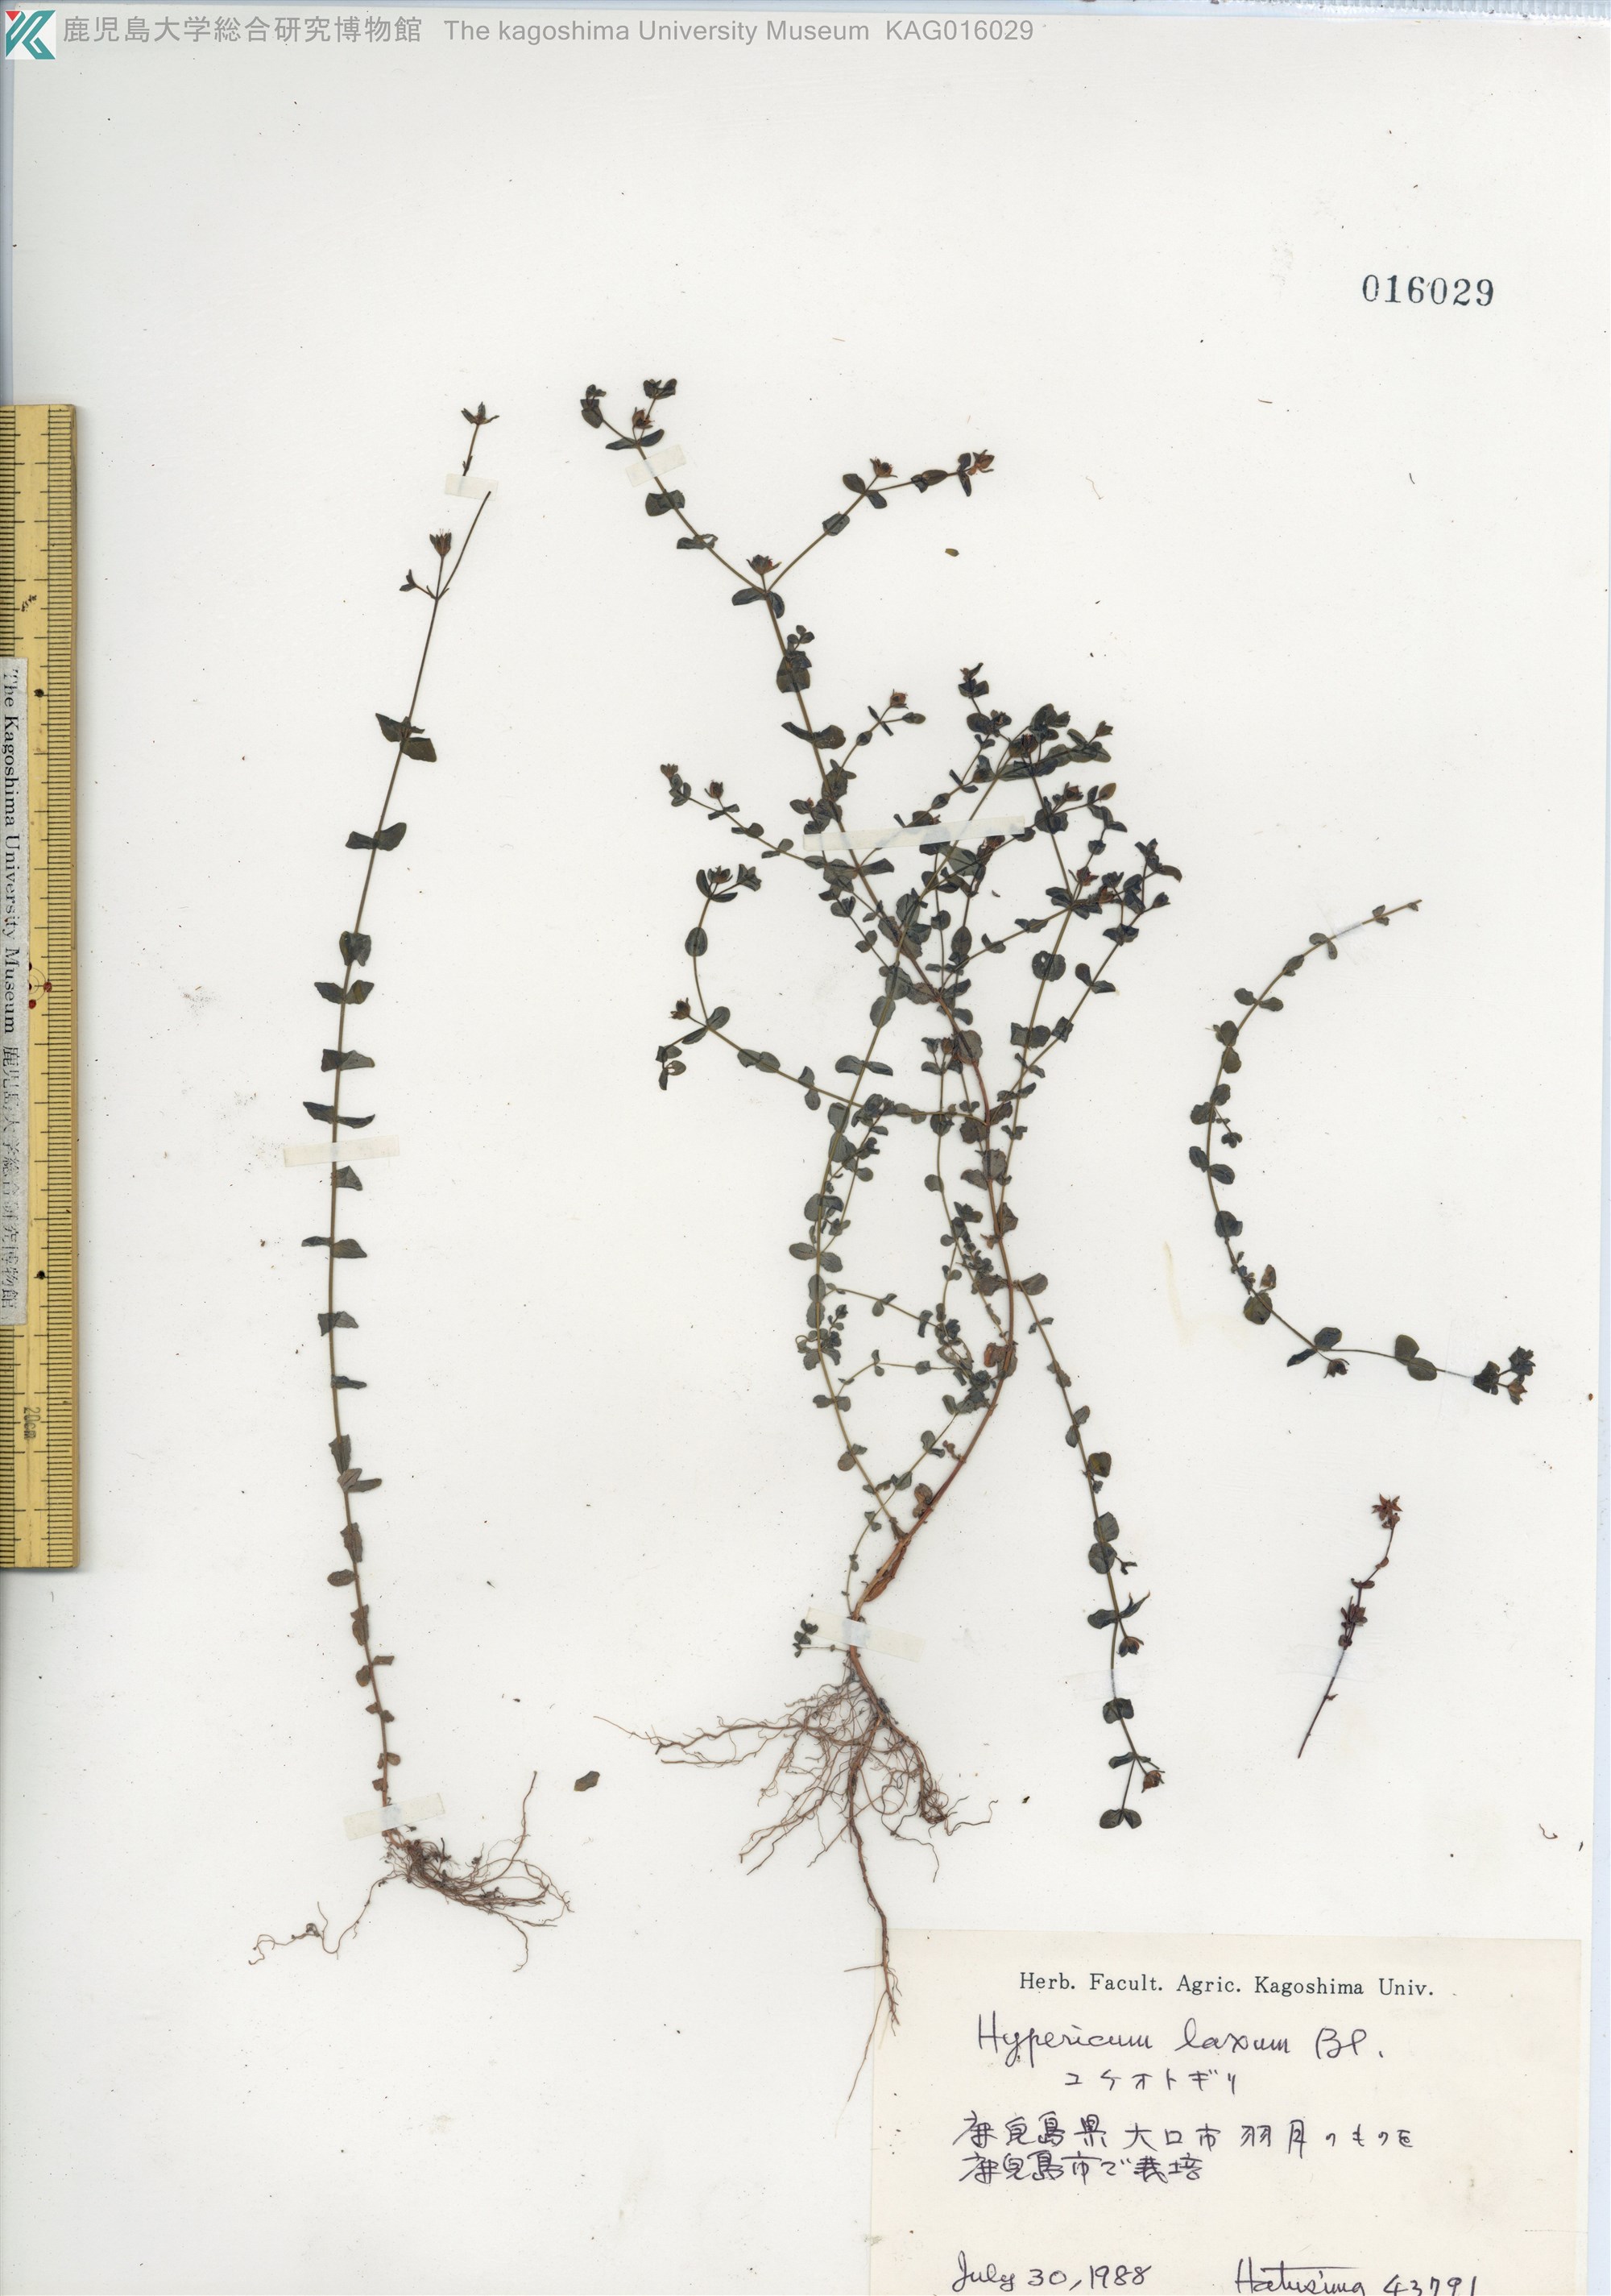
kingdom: Plantae
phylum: Tracheophyta
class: Magnoliopsida
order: Malpighiales
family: Hypericaceae
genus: Hypericum
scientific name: Hypericum japonicum
